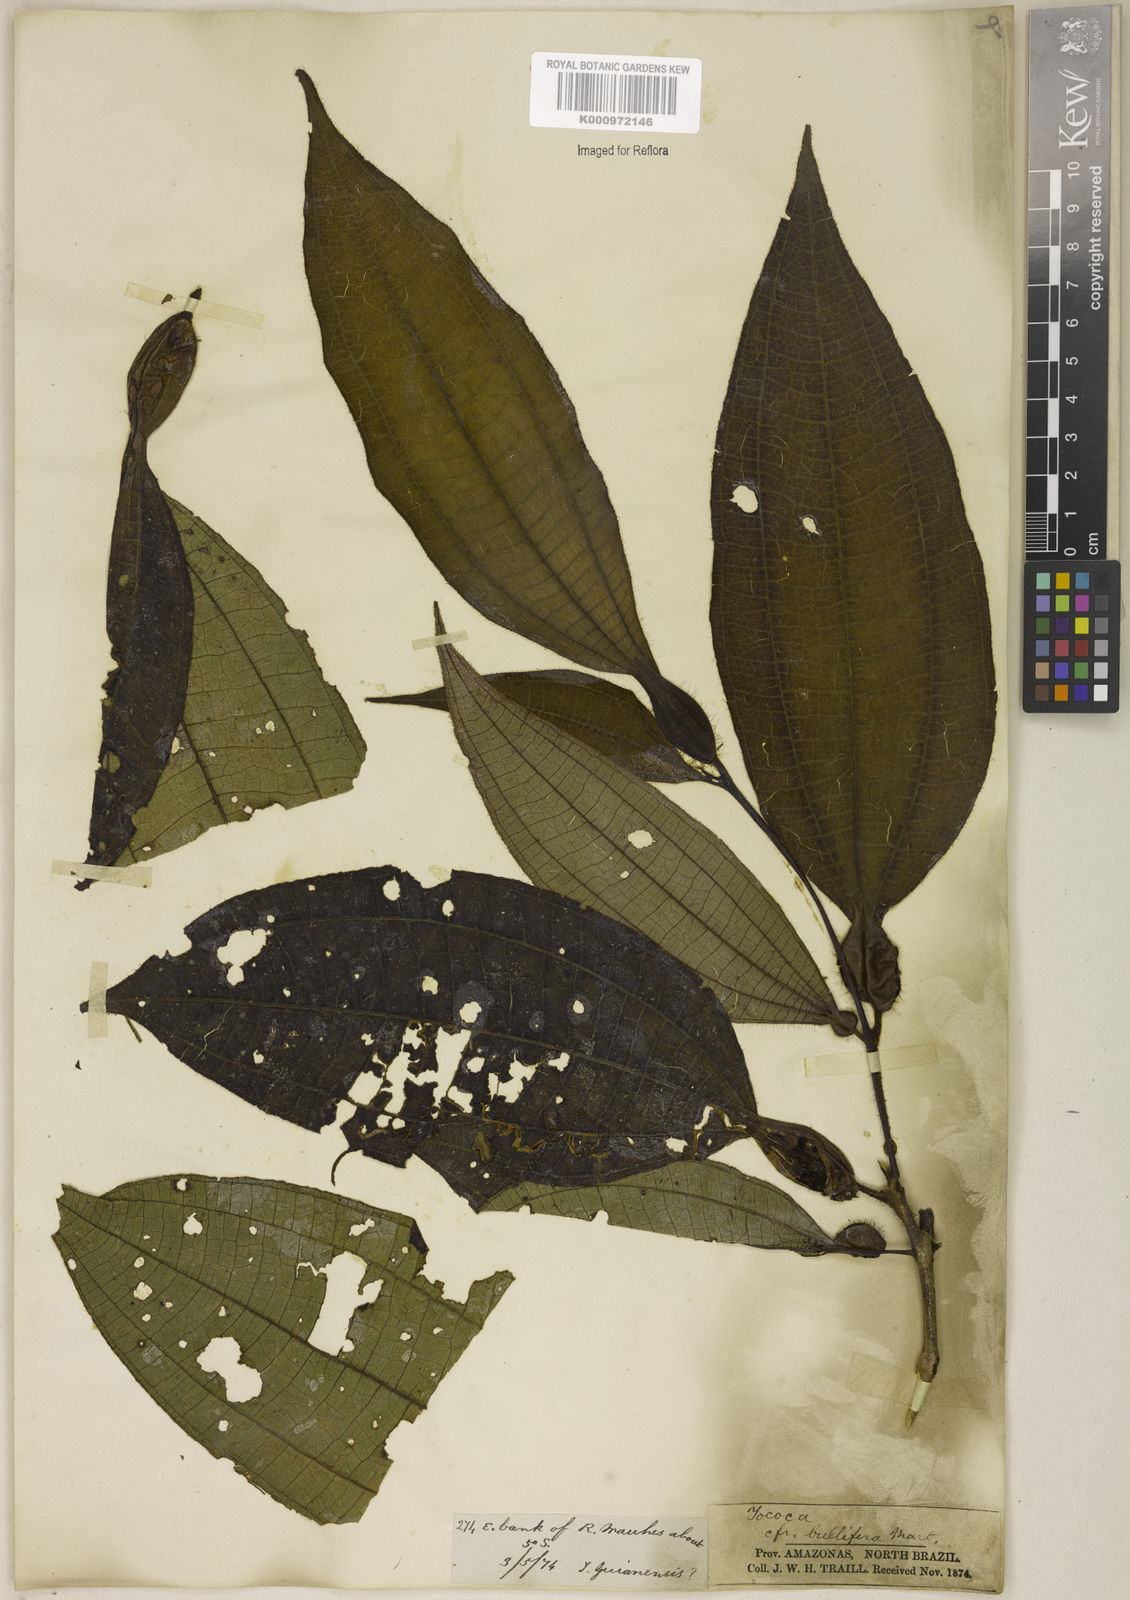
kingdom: Plantae
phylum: Tracheophyta
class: Magnoliopsida
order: Myrtales
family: Melastomataceae
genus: Miconia
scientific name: Miconia bullifera
